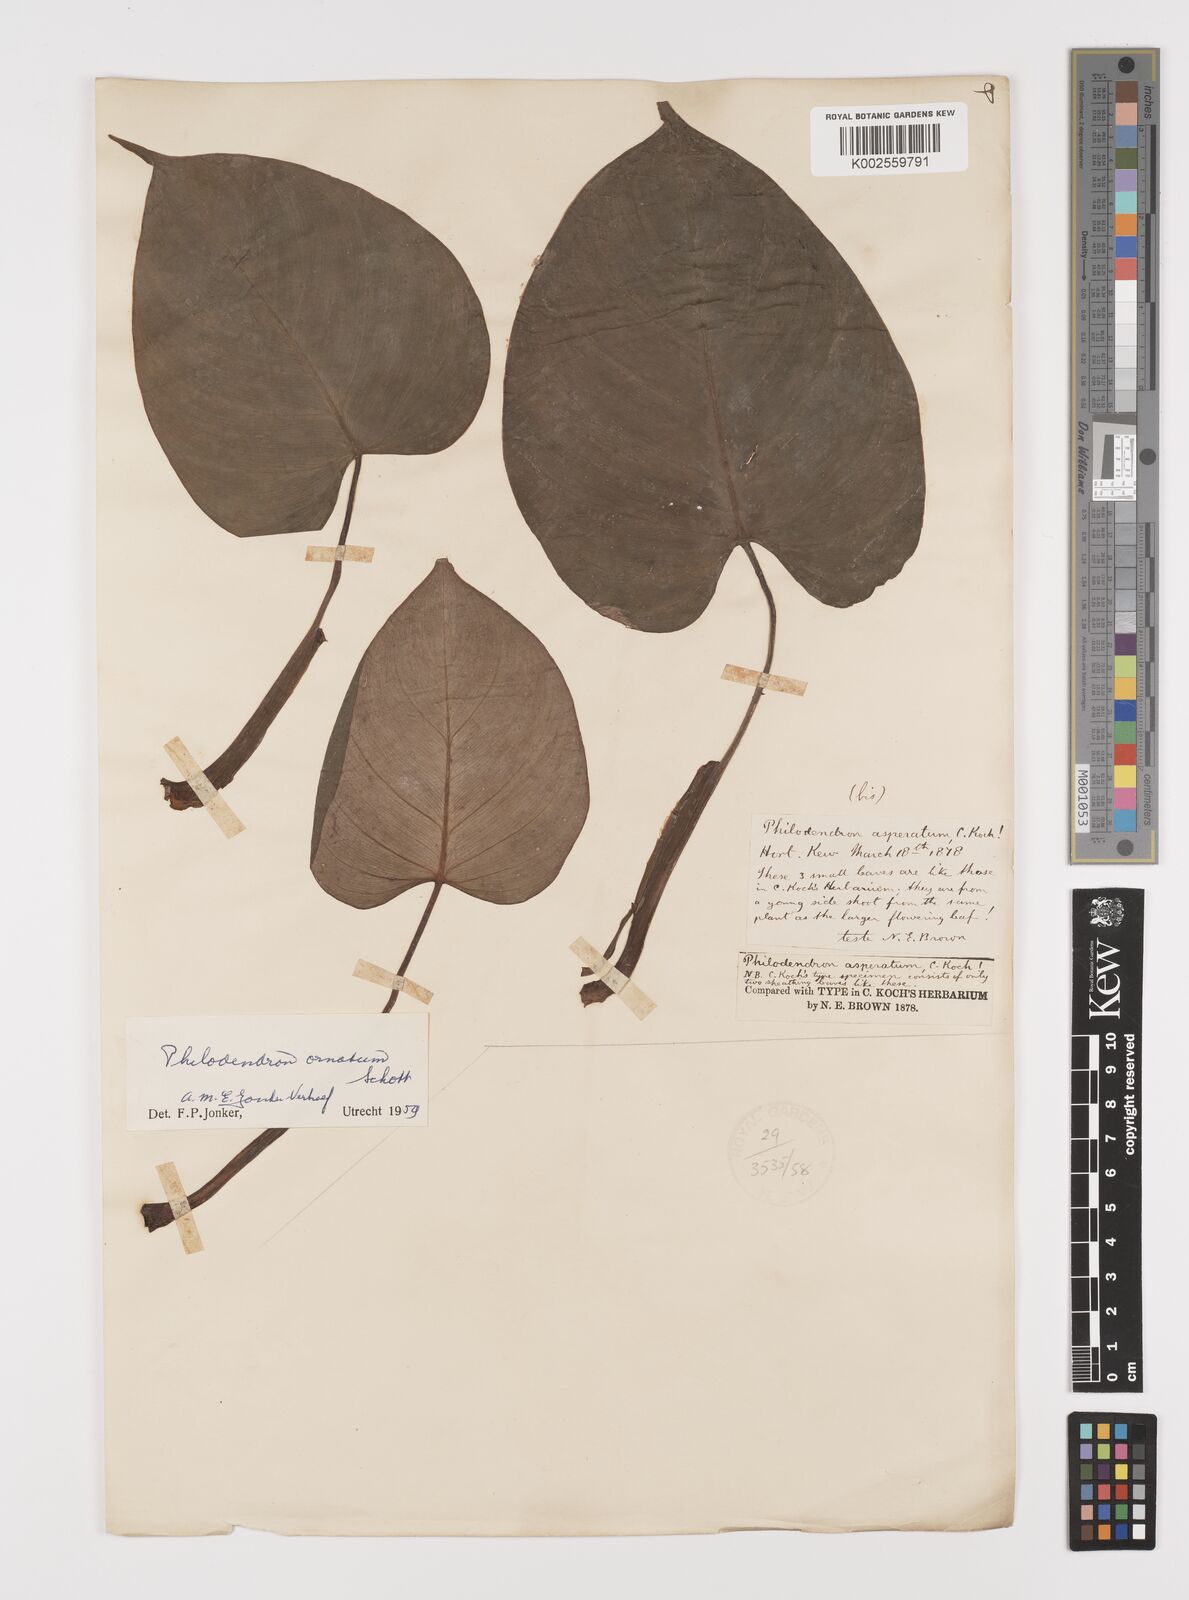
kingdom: Plantae
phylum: Tracheophyta
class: Liliopsida
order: Alismatales
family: Araceae
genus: Philodendron
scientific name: Philodendron ornatum
